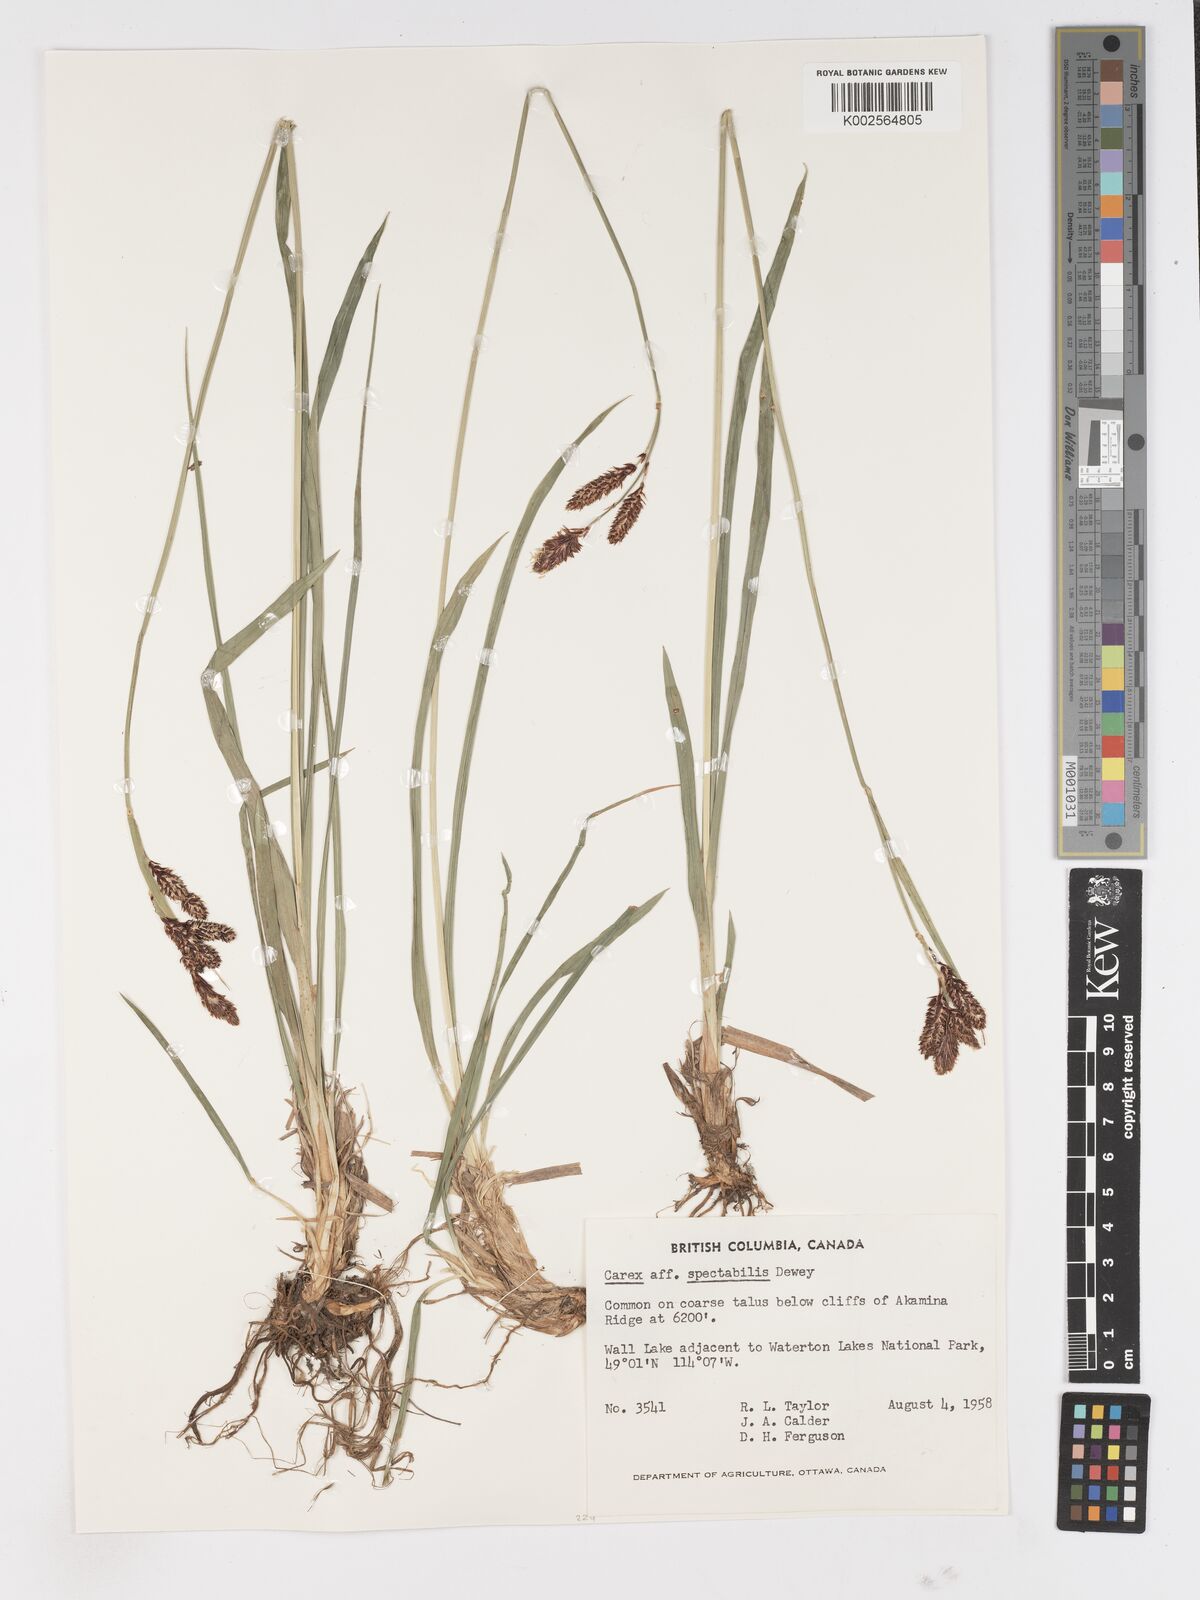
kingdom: Plantae
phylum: Tracheophyta
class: Liliopsida
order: Poales
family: Cyperaceae
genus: Carex
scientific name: Carex
